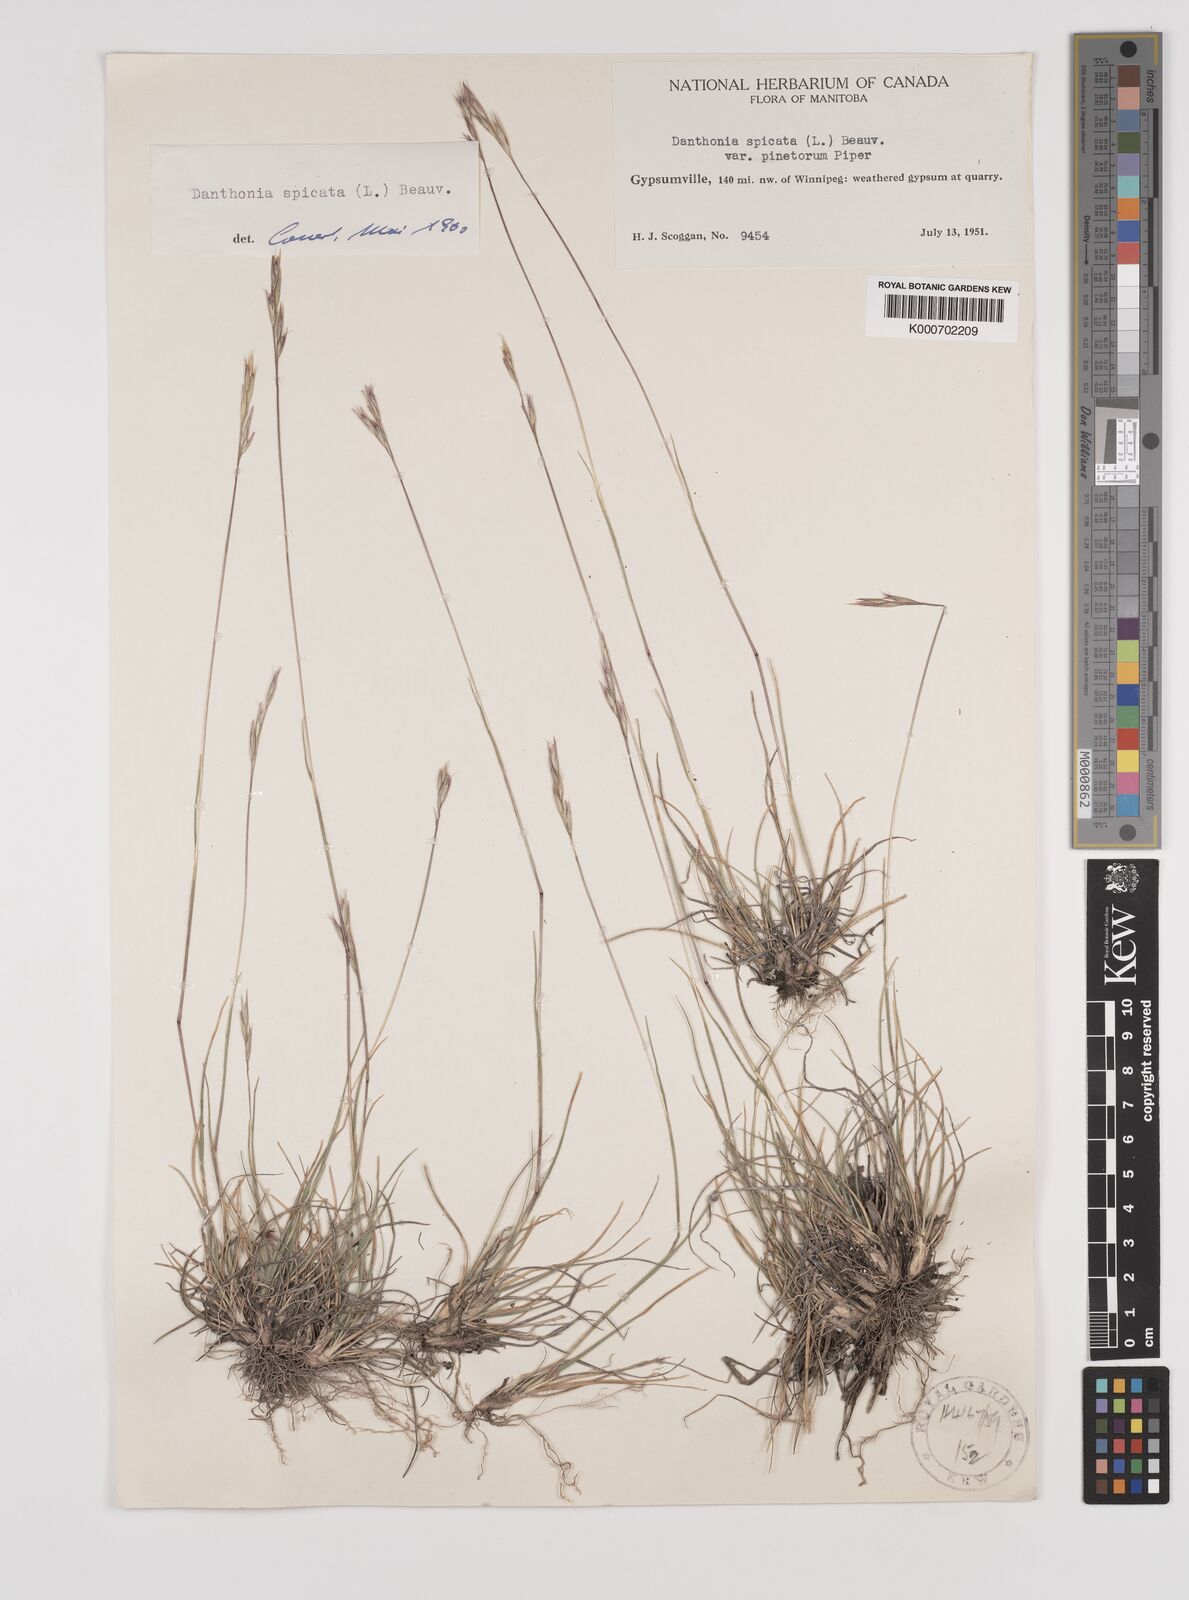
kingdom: Plantae
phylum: Tracheophyta
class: Liliopsida
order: Poales
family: Poaceae
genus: Danthonia
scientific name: Danthonia spicata
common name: Common wild oatgrass
